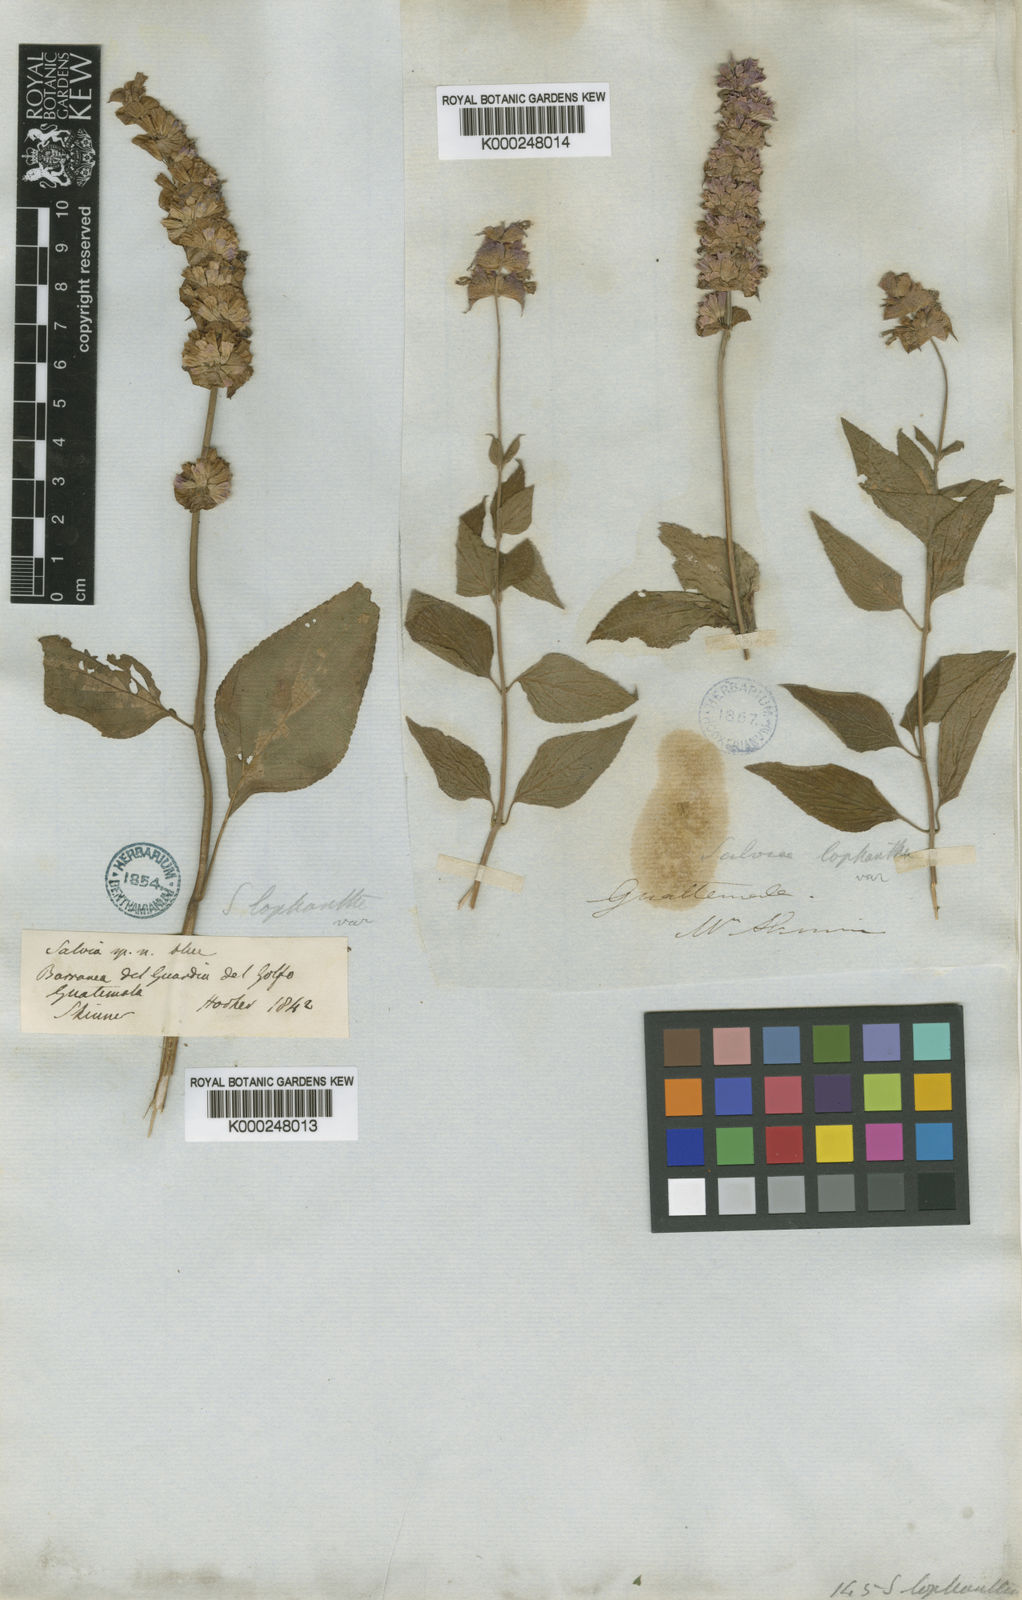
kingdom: Plantae
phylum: Tracheophyta
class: Magnoliopsida
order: Lamiales
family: Lamiaceae
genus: Salvia
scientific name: Salvia mocinoi
